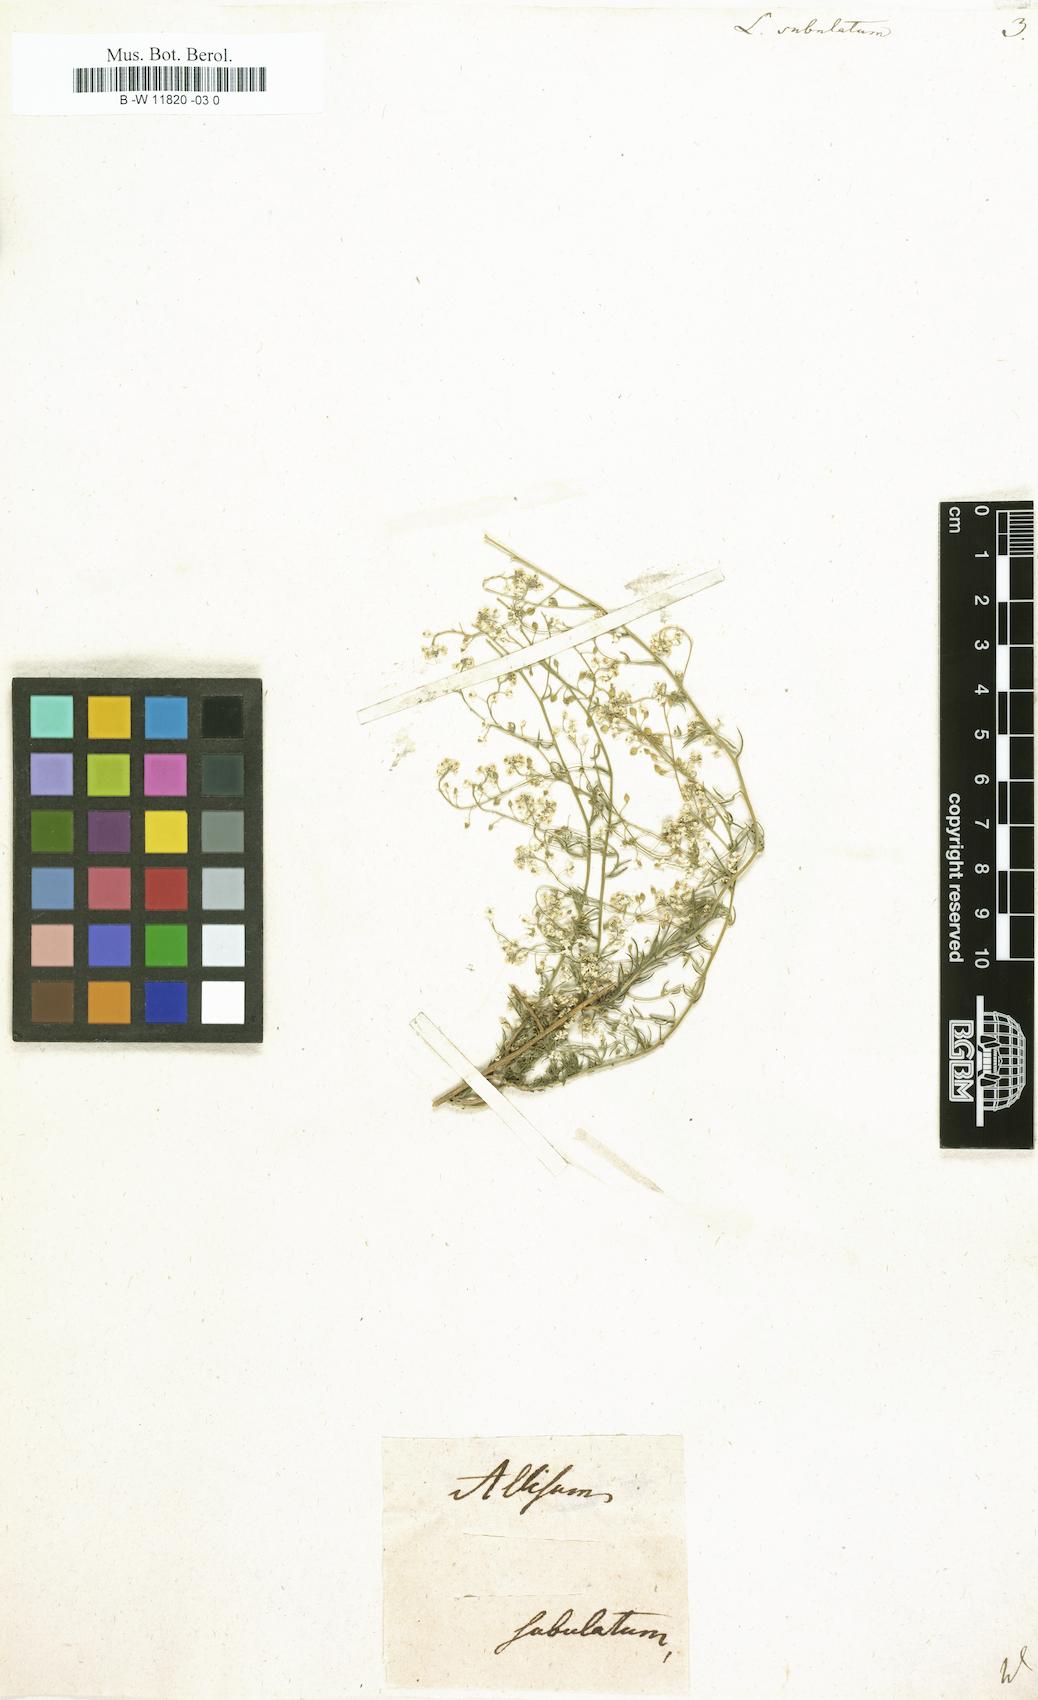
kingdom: Plantae
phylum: Tracheophyta
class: Magnoliopsida
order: Brassicales
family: Brassicaceae
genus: Lepidium
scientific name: Lepidium subulatum
